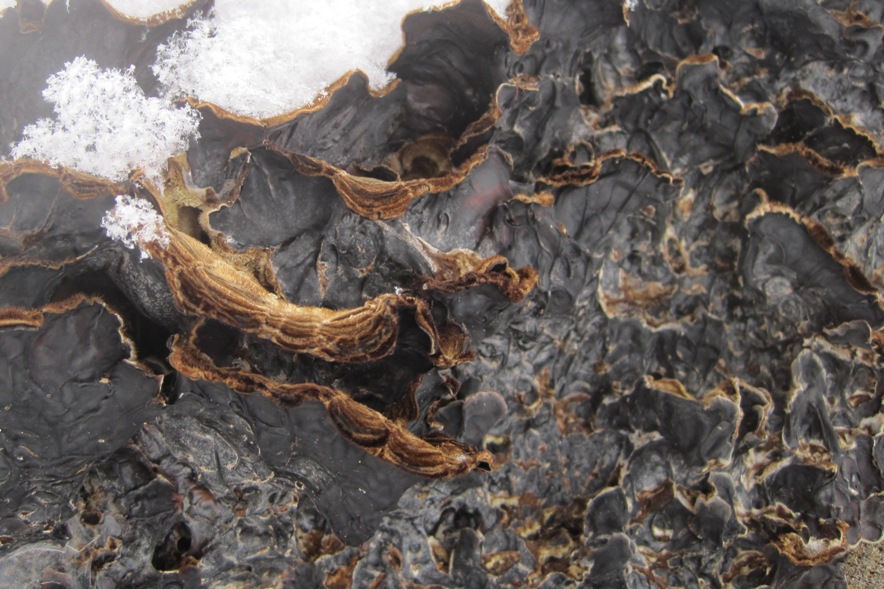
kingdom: Fungi
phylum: Basidiomycota
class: Agaricomycetes
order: Auriculariales
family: Auriculariaceae
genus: Auricularia
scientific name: Auricularia mesenterica
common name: håret judasøre
